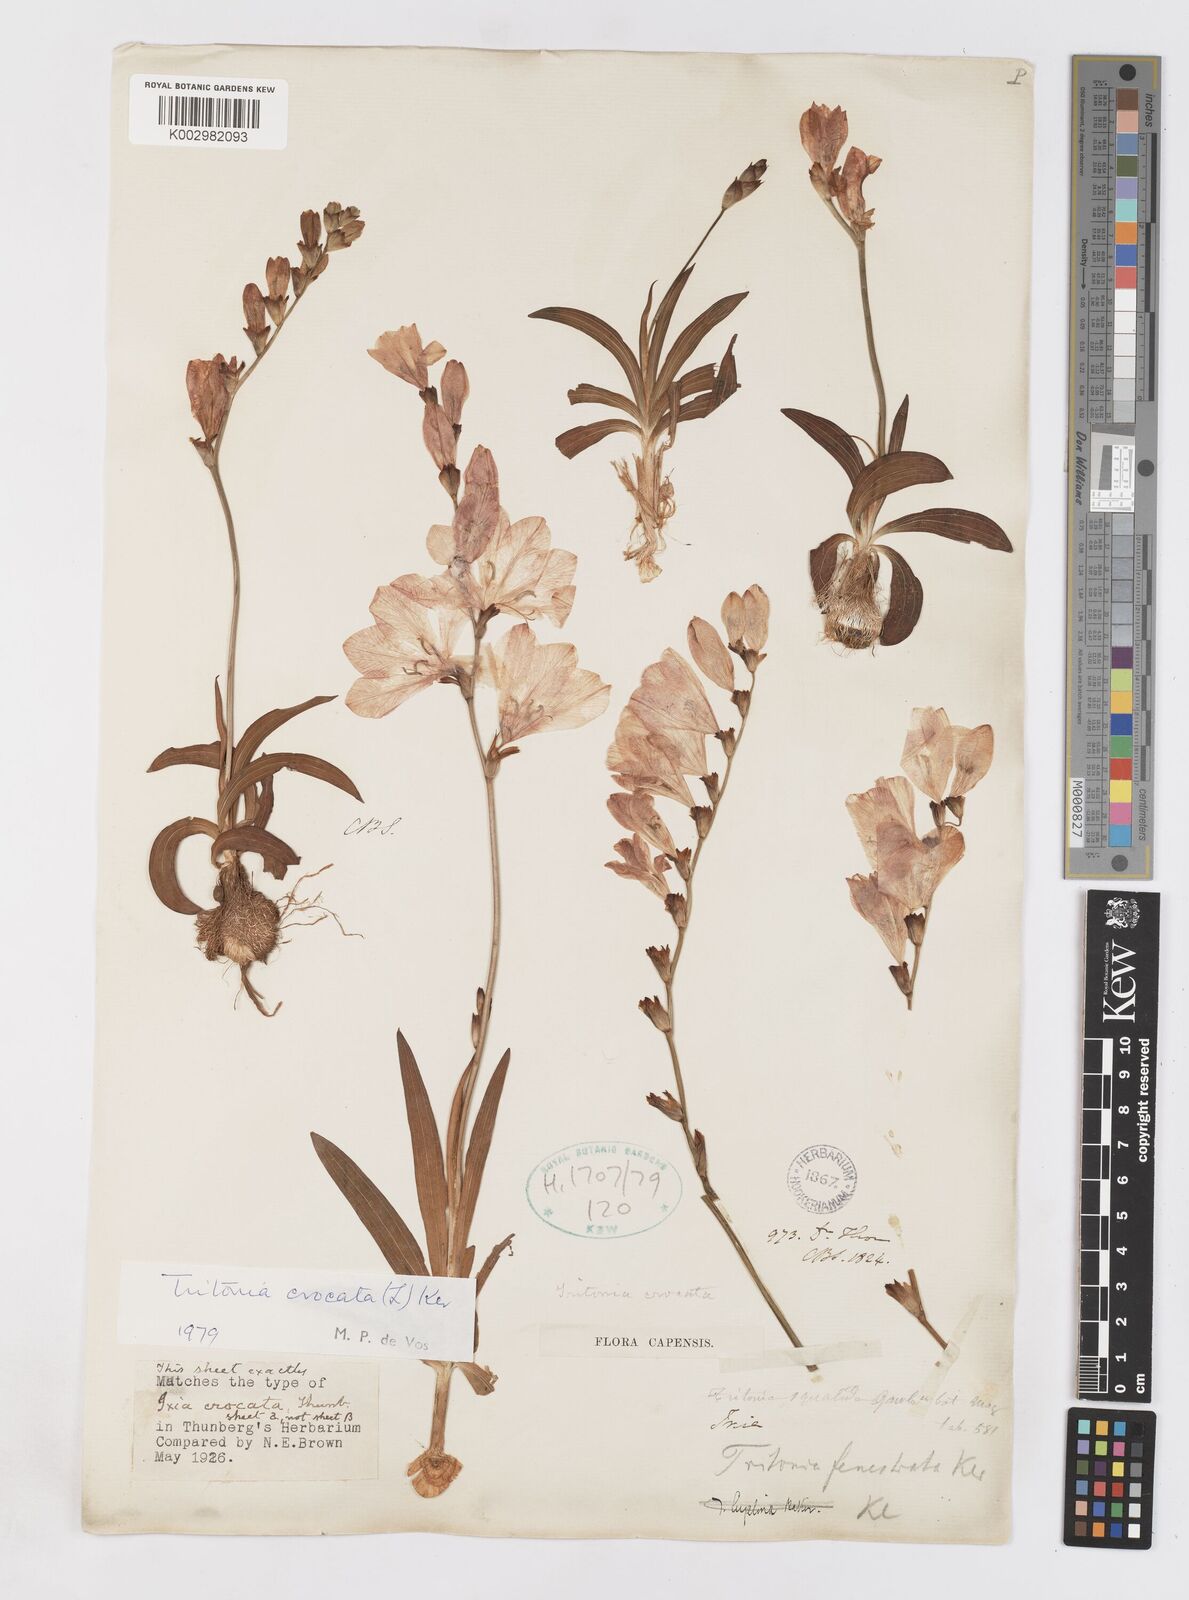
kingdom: Plantae
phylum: Tracheophyta
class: Liliopsida
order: Asparagales
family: Iridaceae
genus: Tritonia
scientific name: Tritonia crocata
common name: Flame-freesia
